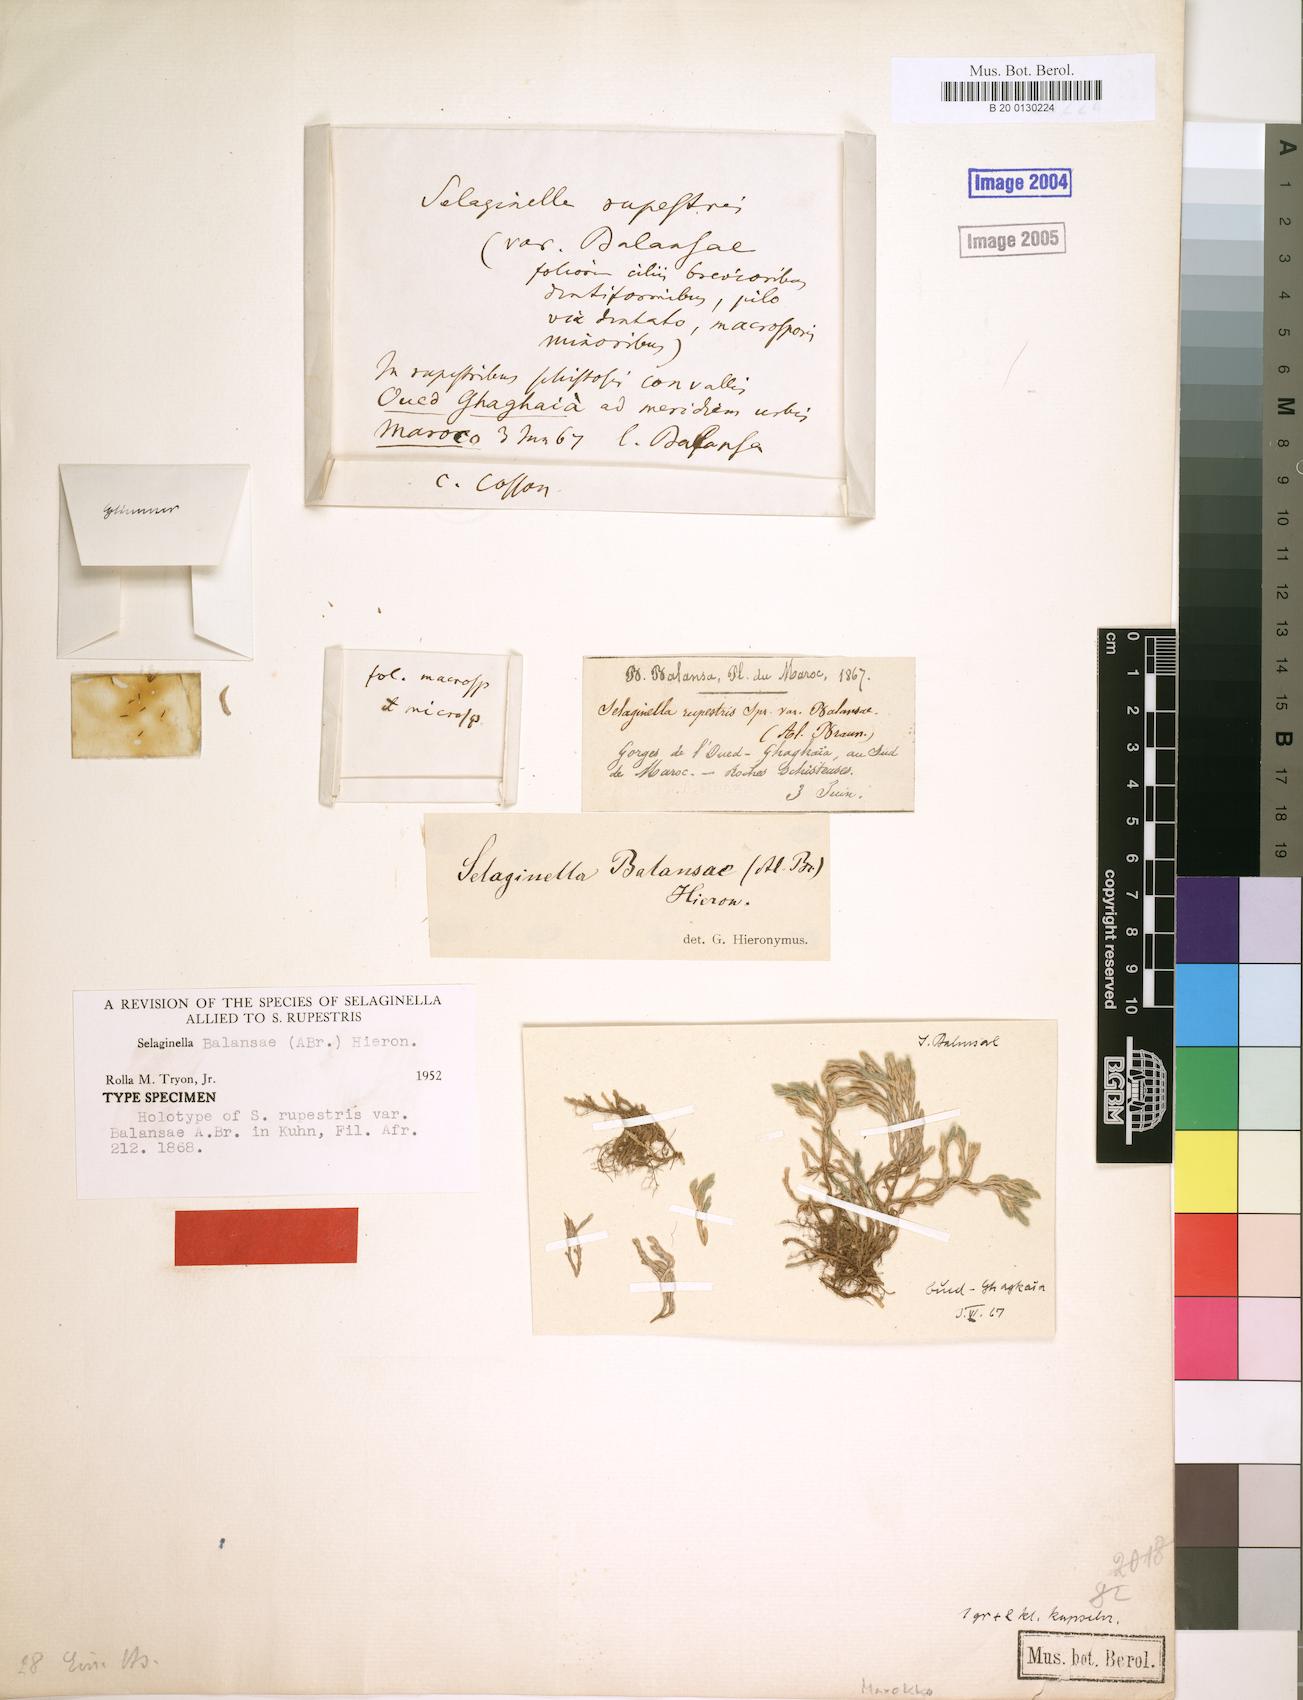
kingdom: Plantae
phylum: Tracheophyta
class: Lycopodiopsida
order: Selaginellales
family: Selaginellaceae
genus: Selaginella
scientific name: Selaginella balansae
